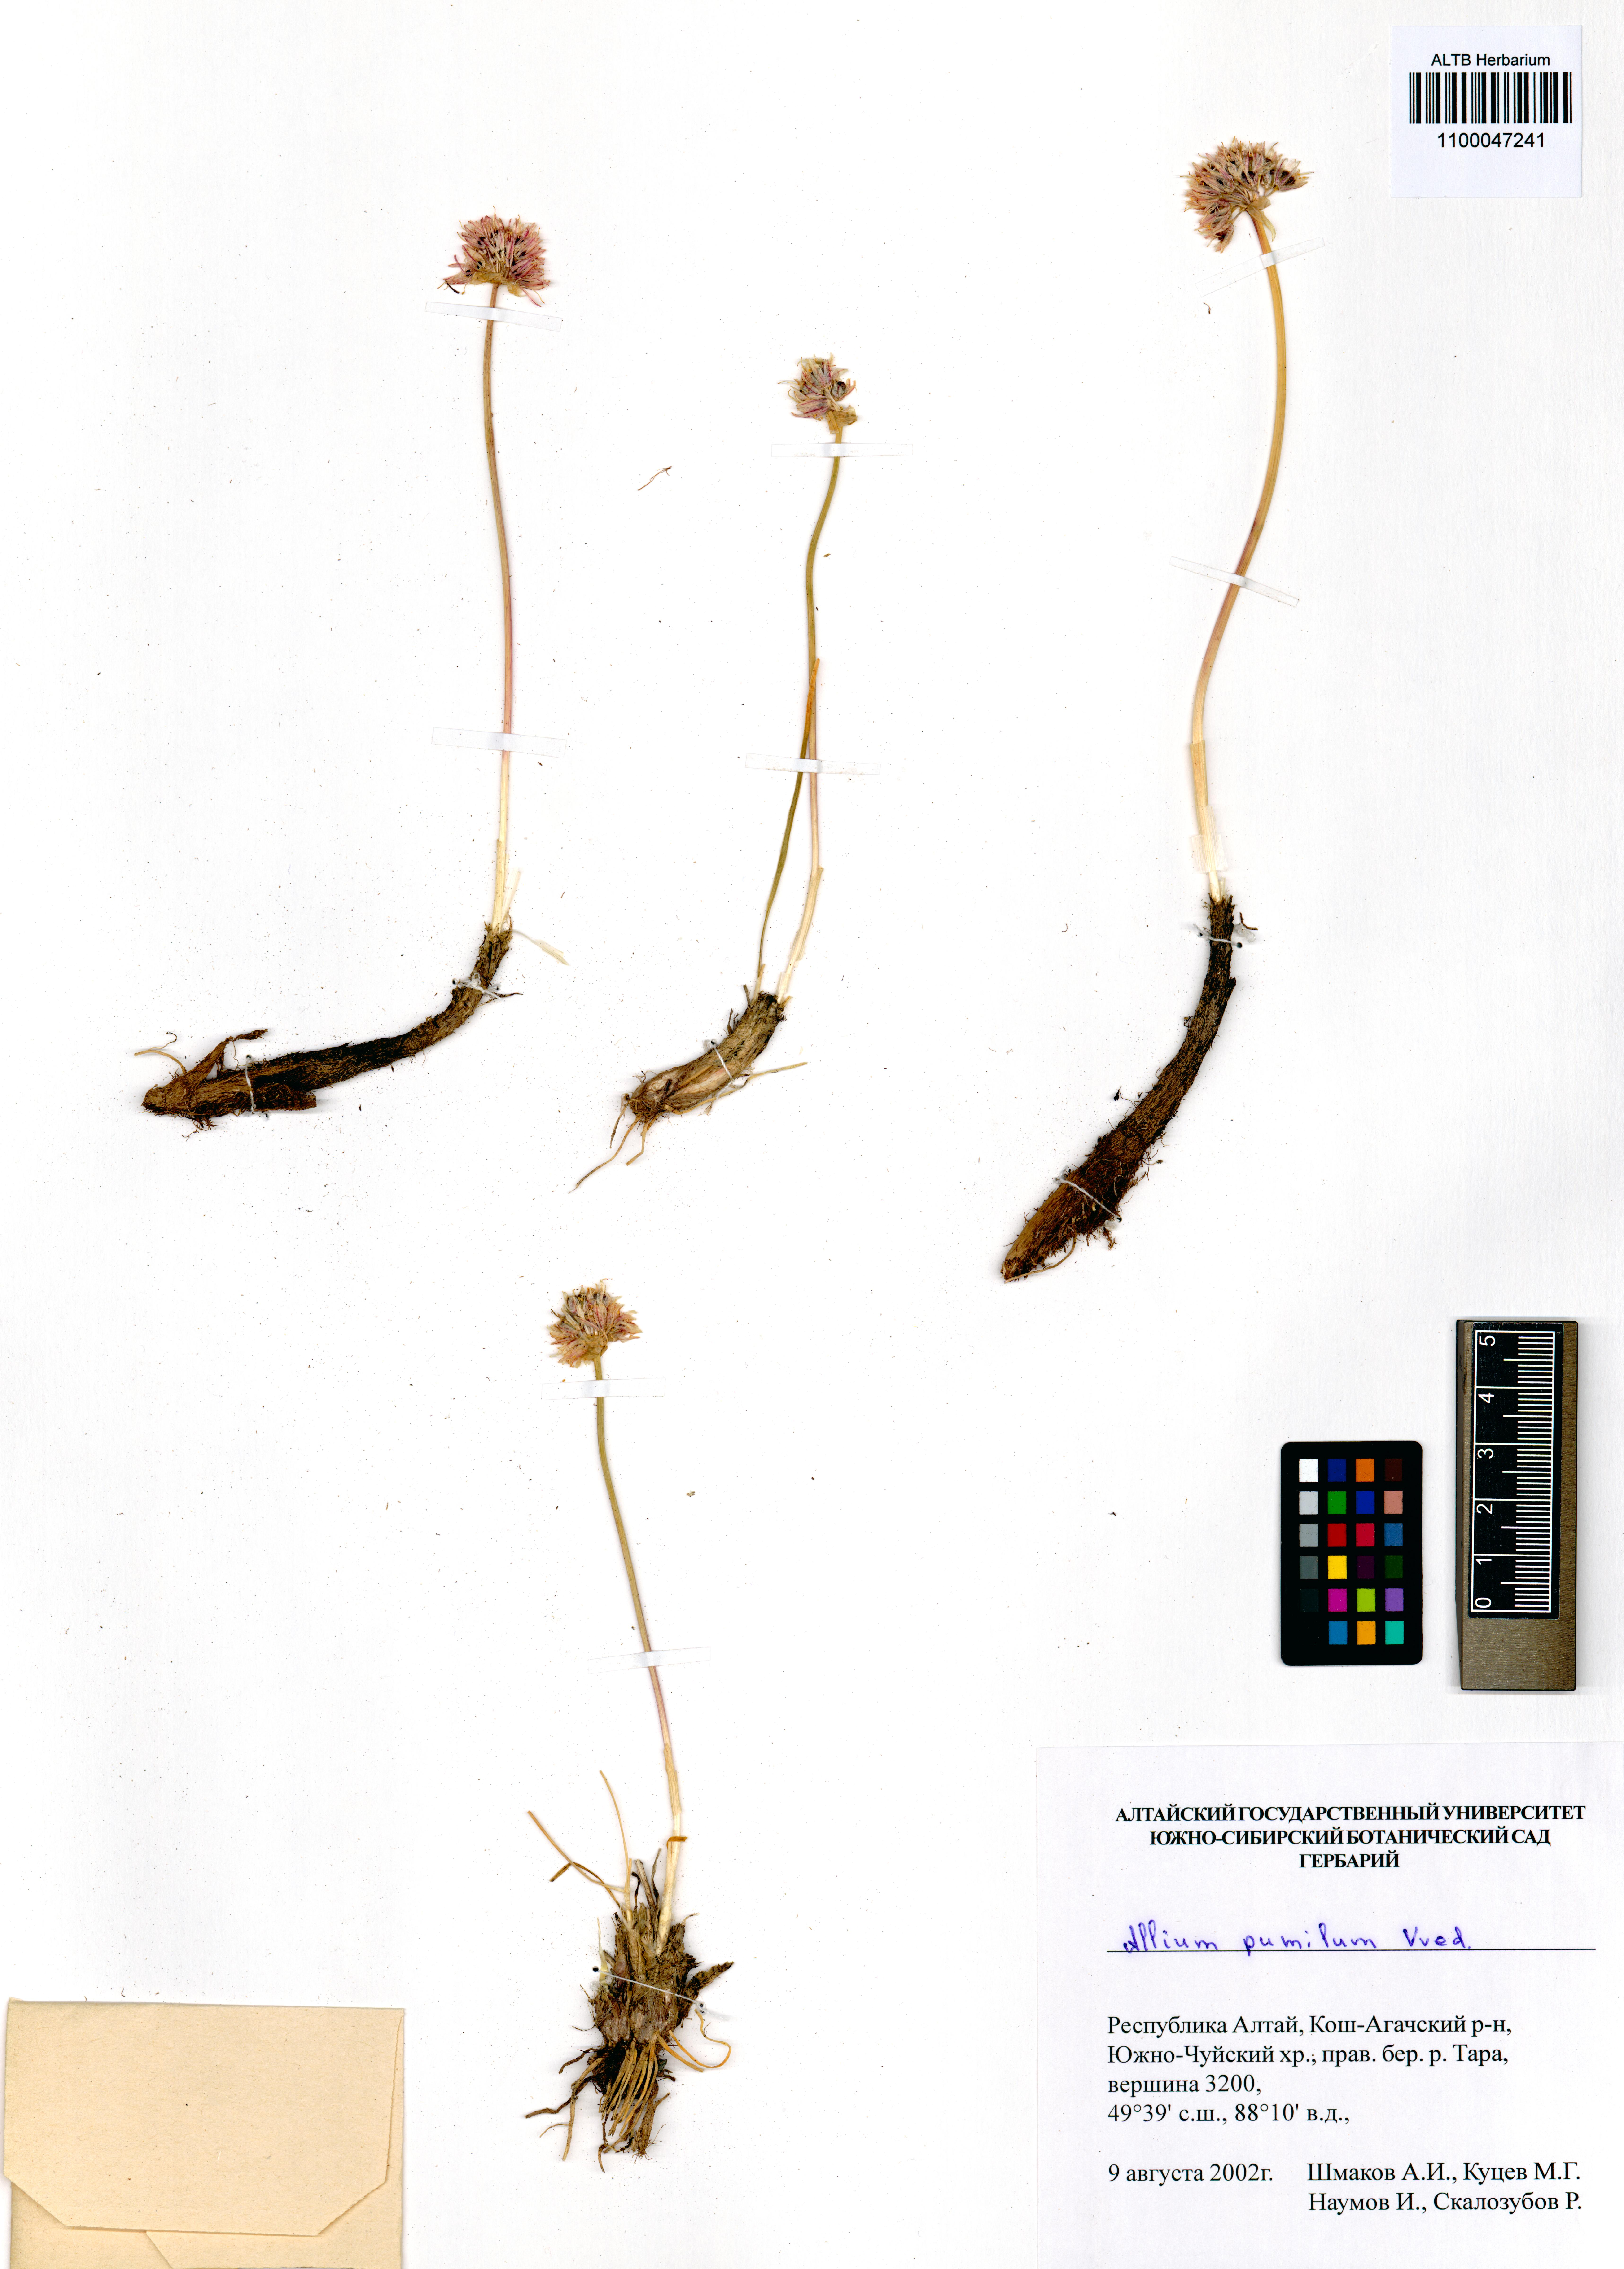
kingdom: Plantae
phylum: Tracheophyta
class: Liliopsida
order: Asparagales
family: Amaryllidaceae
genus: Allium
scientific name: Allium pumilum
